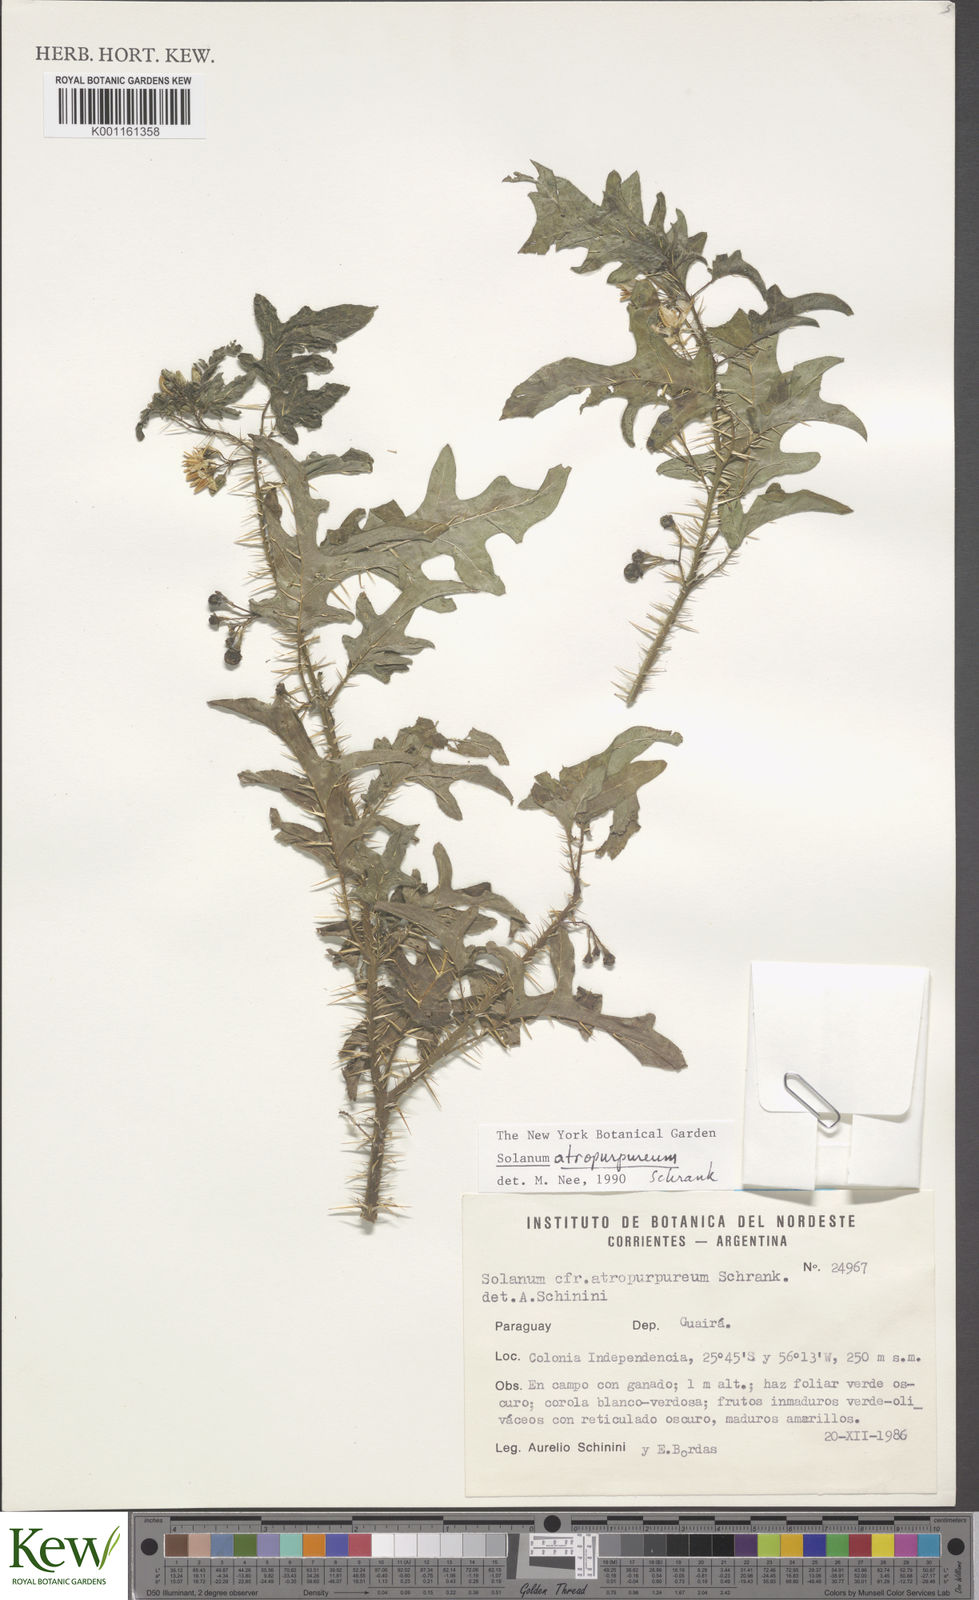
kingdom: Plantae
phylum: Tracheophyta
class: Magnoliopsida
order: Solanales
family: Solanaceae
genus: Solanum
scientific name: Solanum atropurpureum
